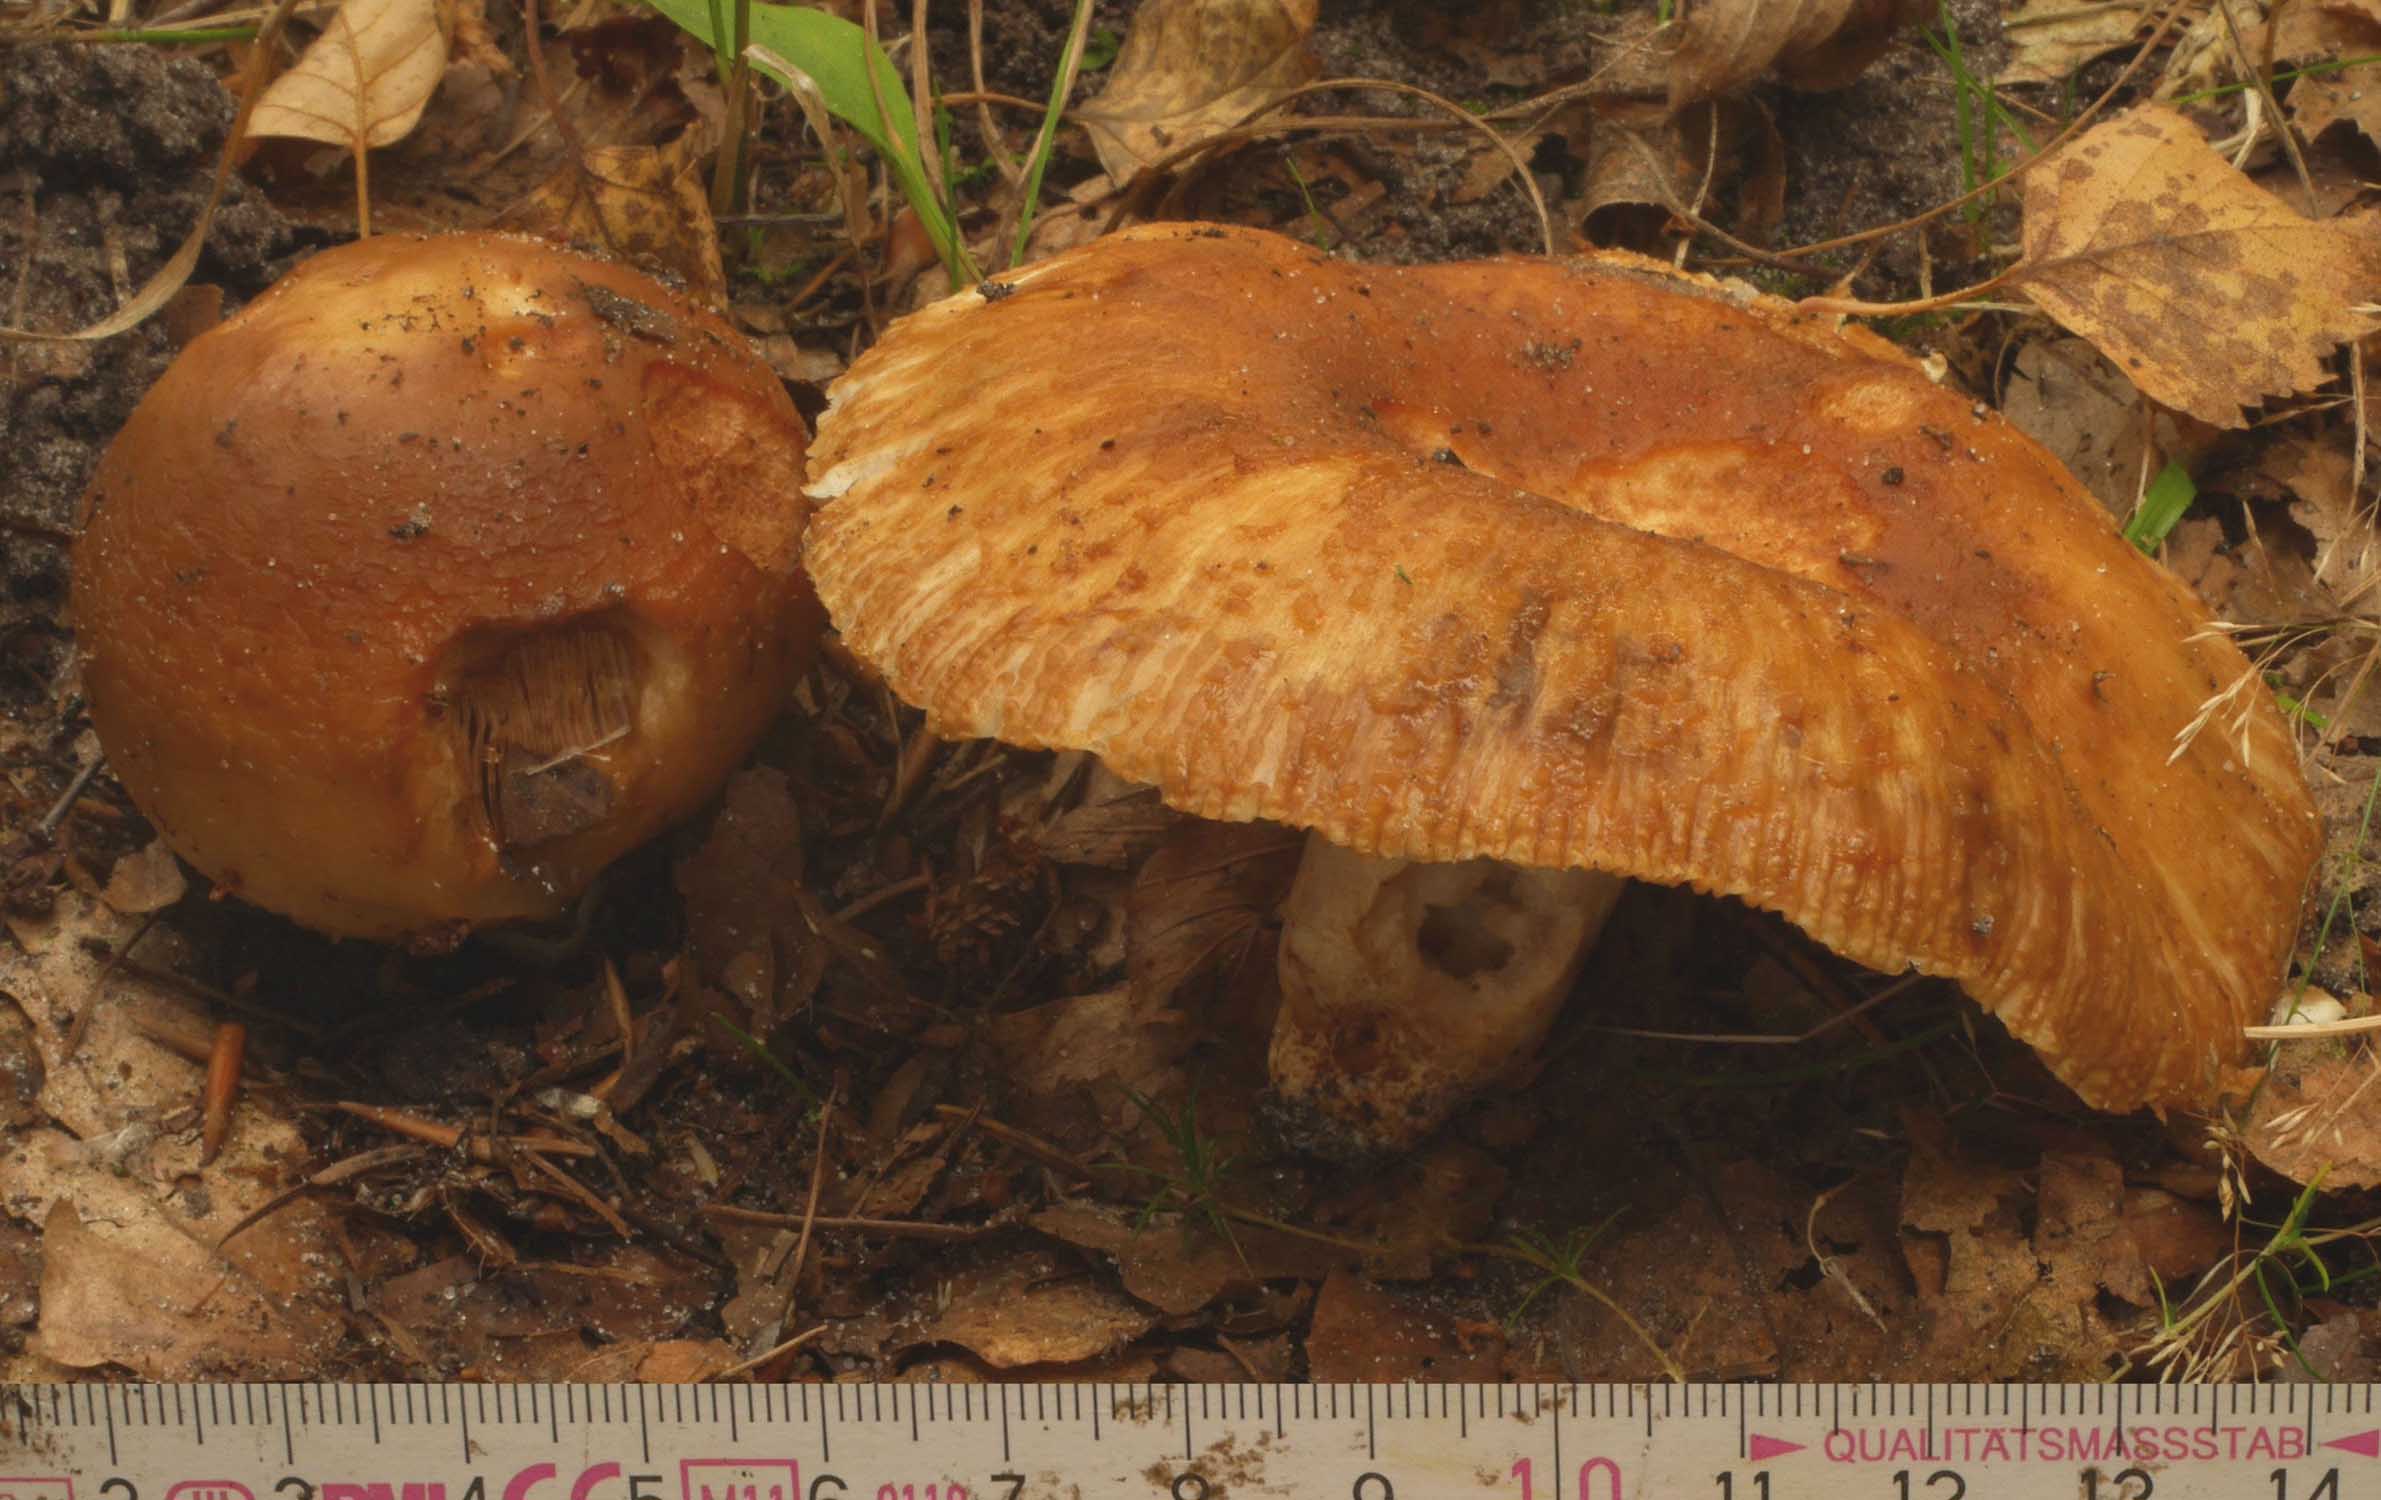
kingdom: Fungi
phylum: Basidiomycota
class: Agaricomycetes
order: Russulales
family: Russulaceae
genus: Russula
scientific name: Russula
